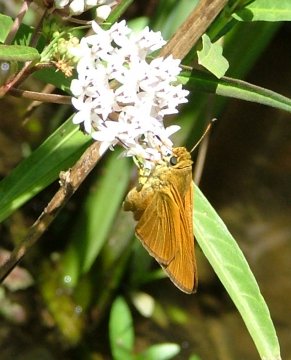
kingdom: Animalia
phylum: Arthropoda
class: Insecta
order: Lepidoptera
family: Hesperiidae
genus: Euphyes
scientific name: Euphyes dion
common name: Dion Skipper
